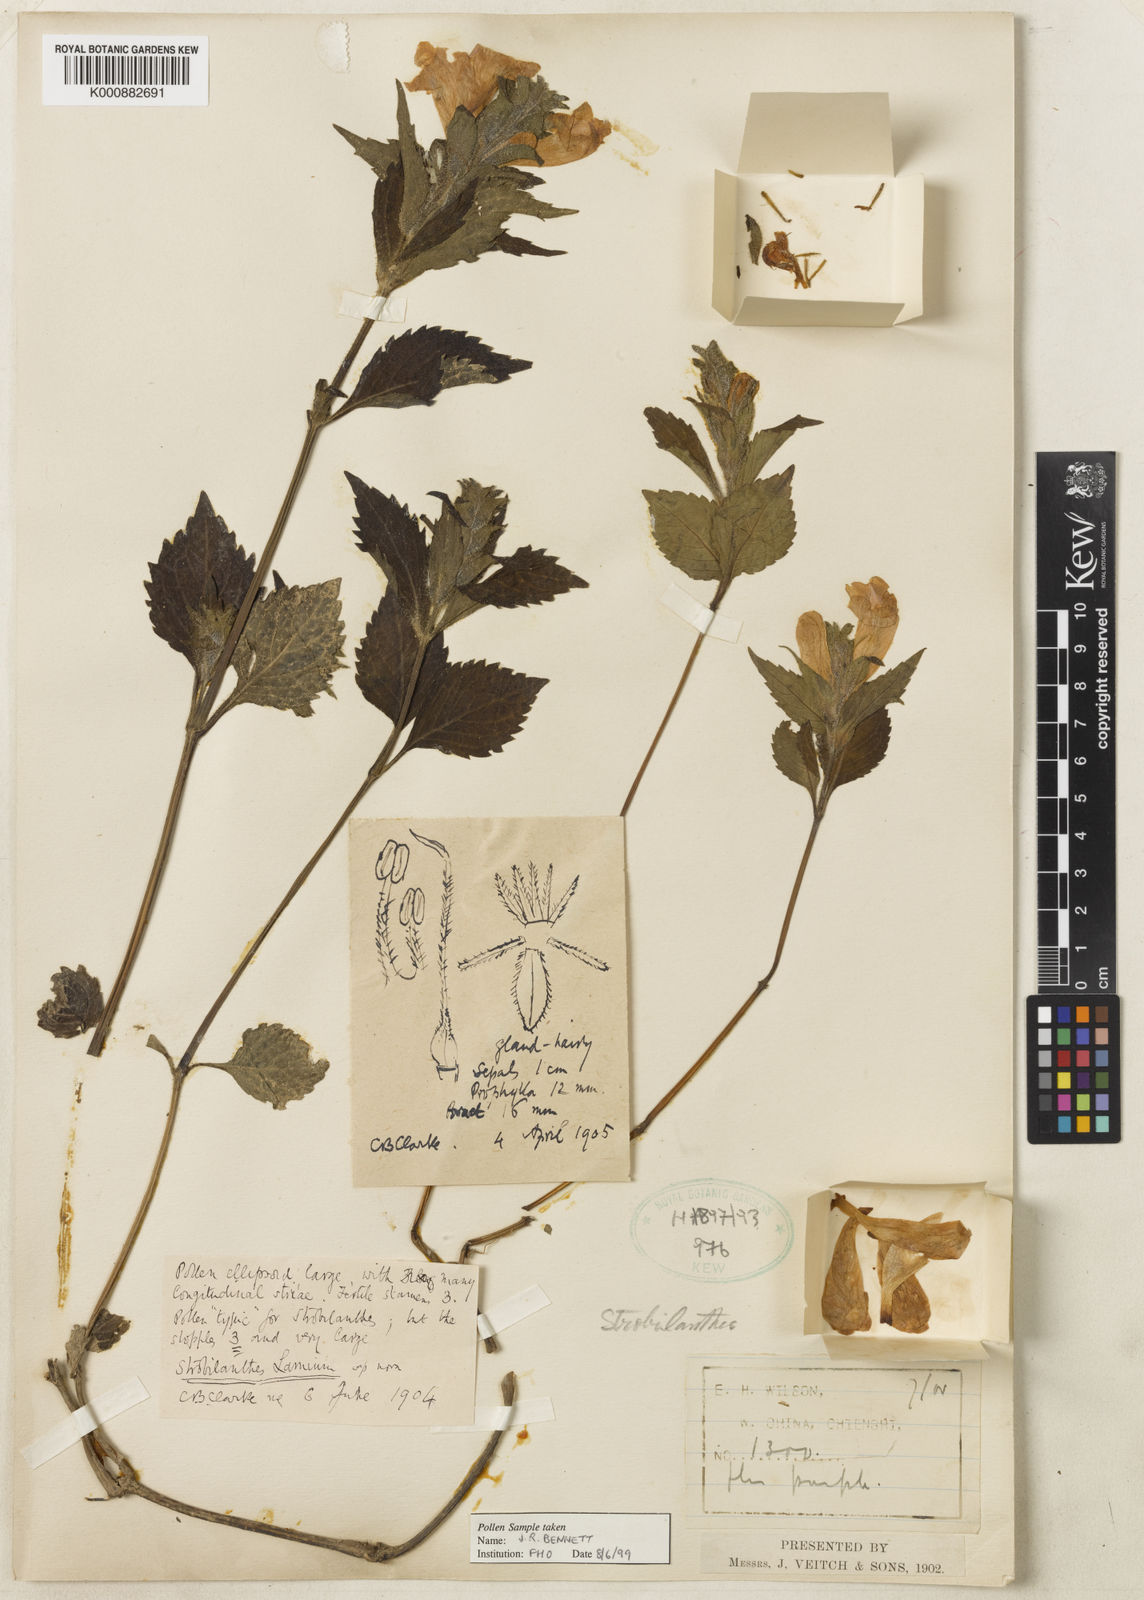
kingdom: Plantae
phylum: Tracheophyta
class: Magnoliopsida
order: Lamiales
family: Acanthaceae
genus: Strobilanthes
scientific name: Strobilanthes lamium
